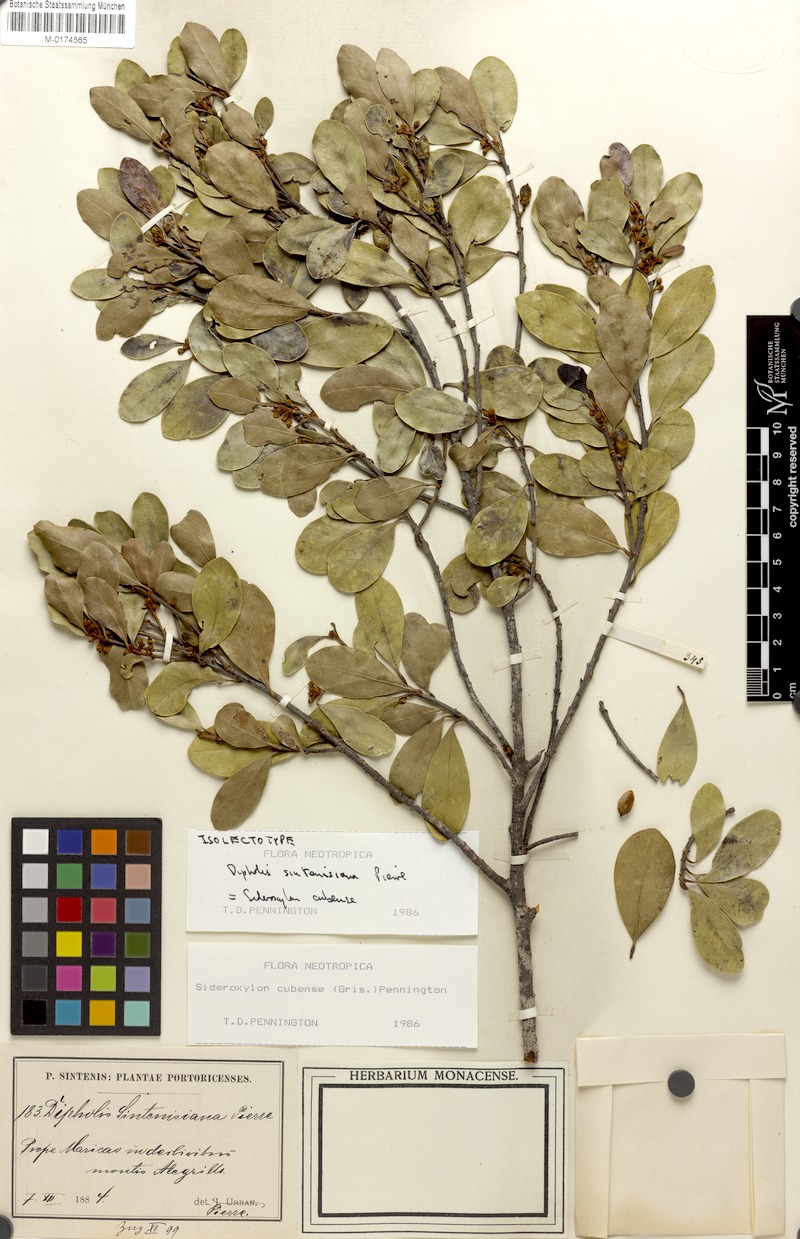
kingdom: Plantae
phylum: Tracheophyta
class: Magnoliopsida
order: Ericales
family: Sapotaceae
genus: Sideroxylon
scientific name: Sideroxylon cubense
